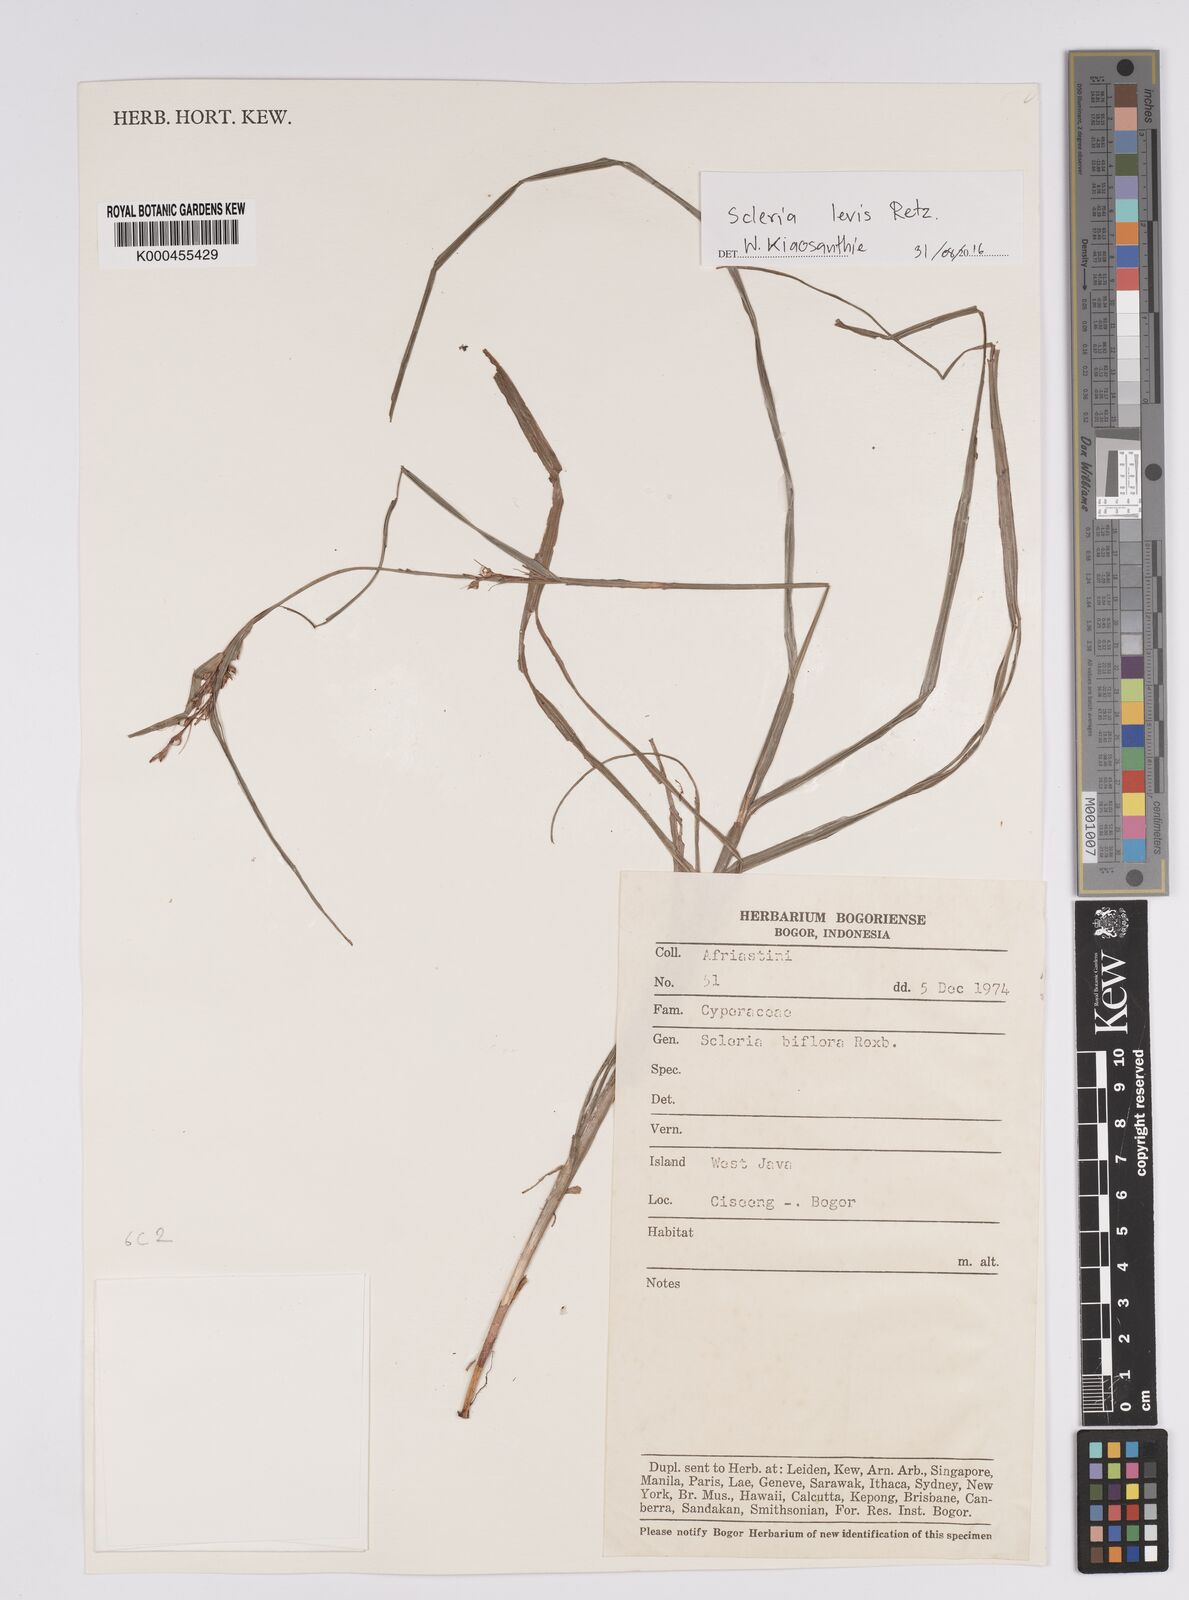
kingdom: Plantae
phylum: Tracheophyta
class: Liliopsida
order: Poales
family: Cyperaceae
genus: Scleria
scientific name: Scleria biflora
